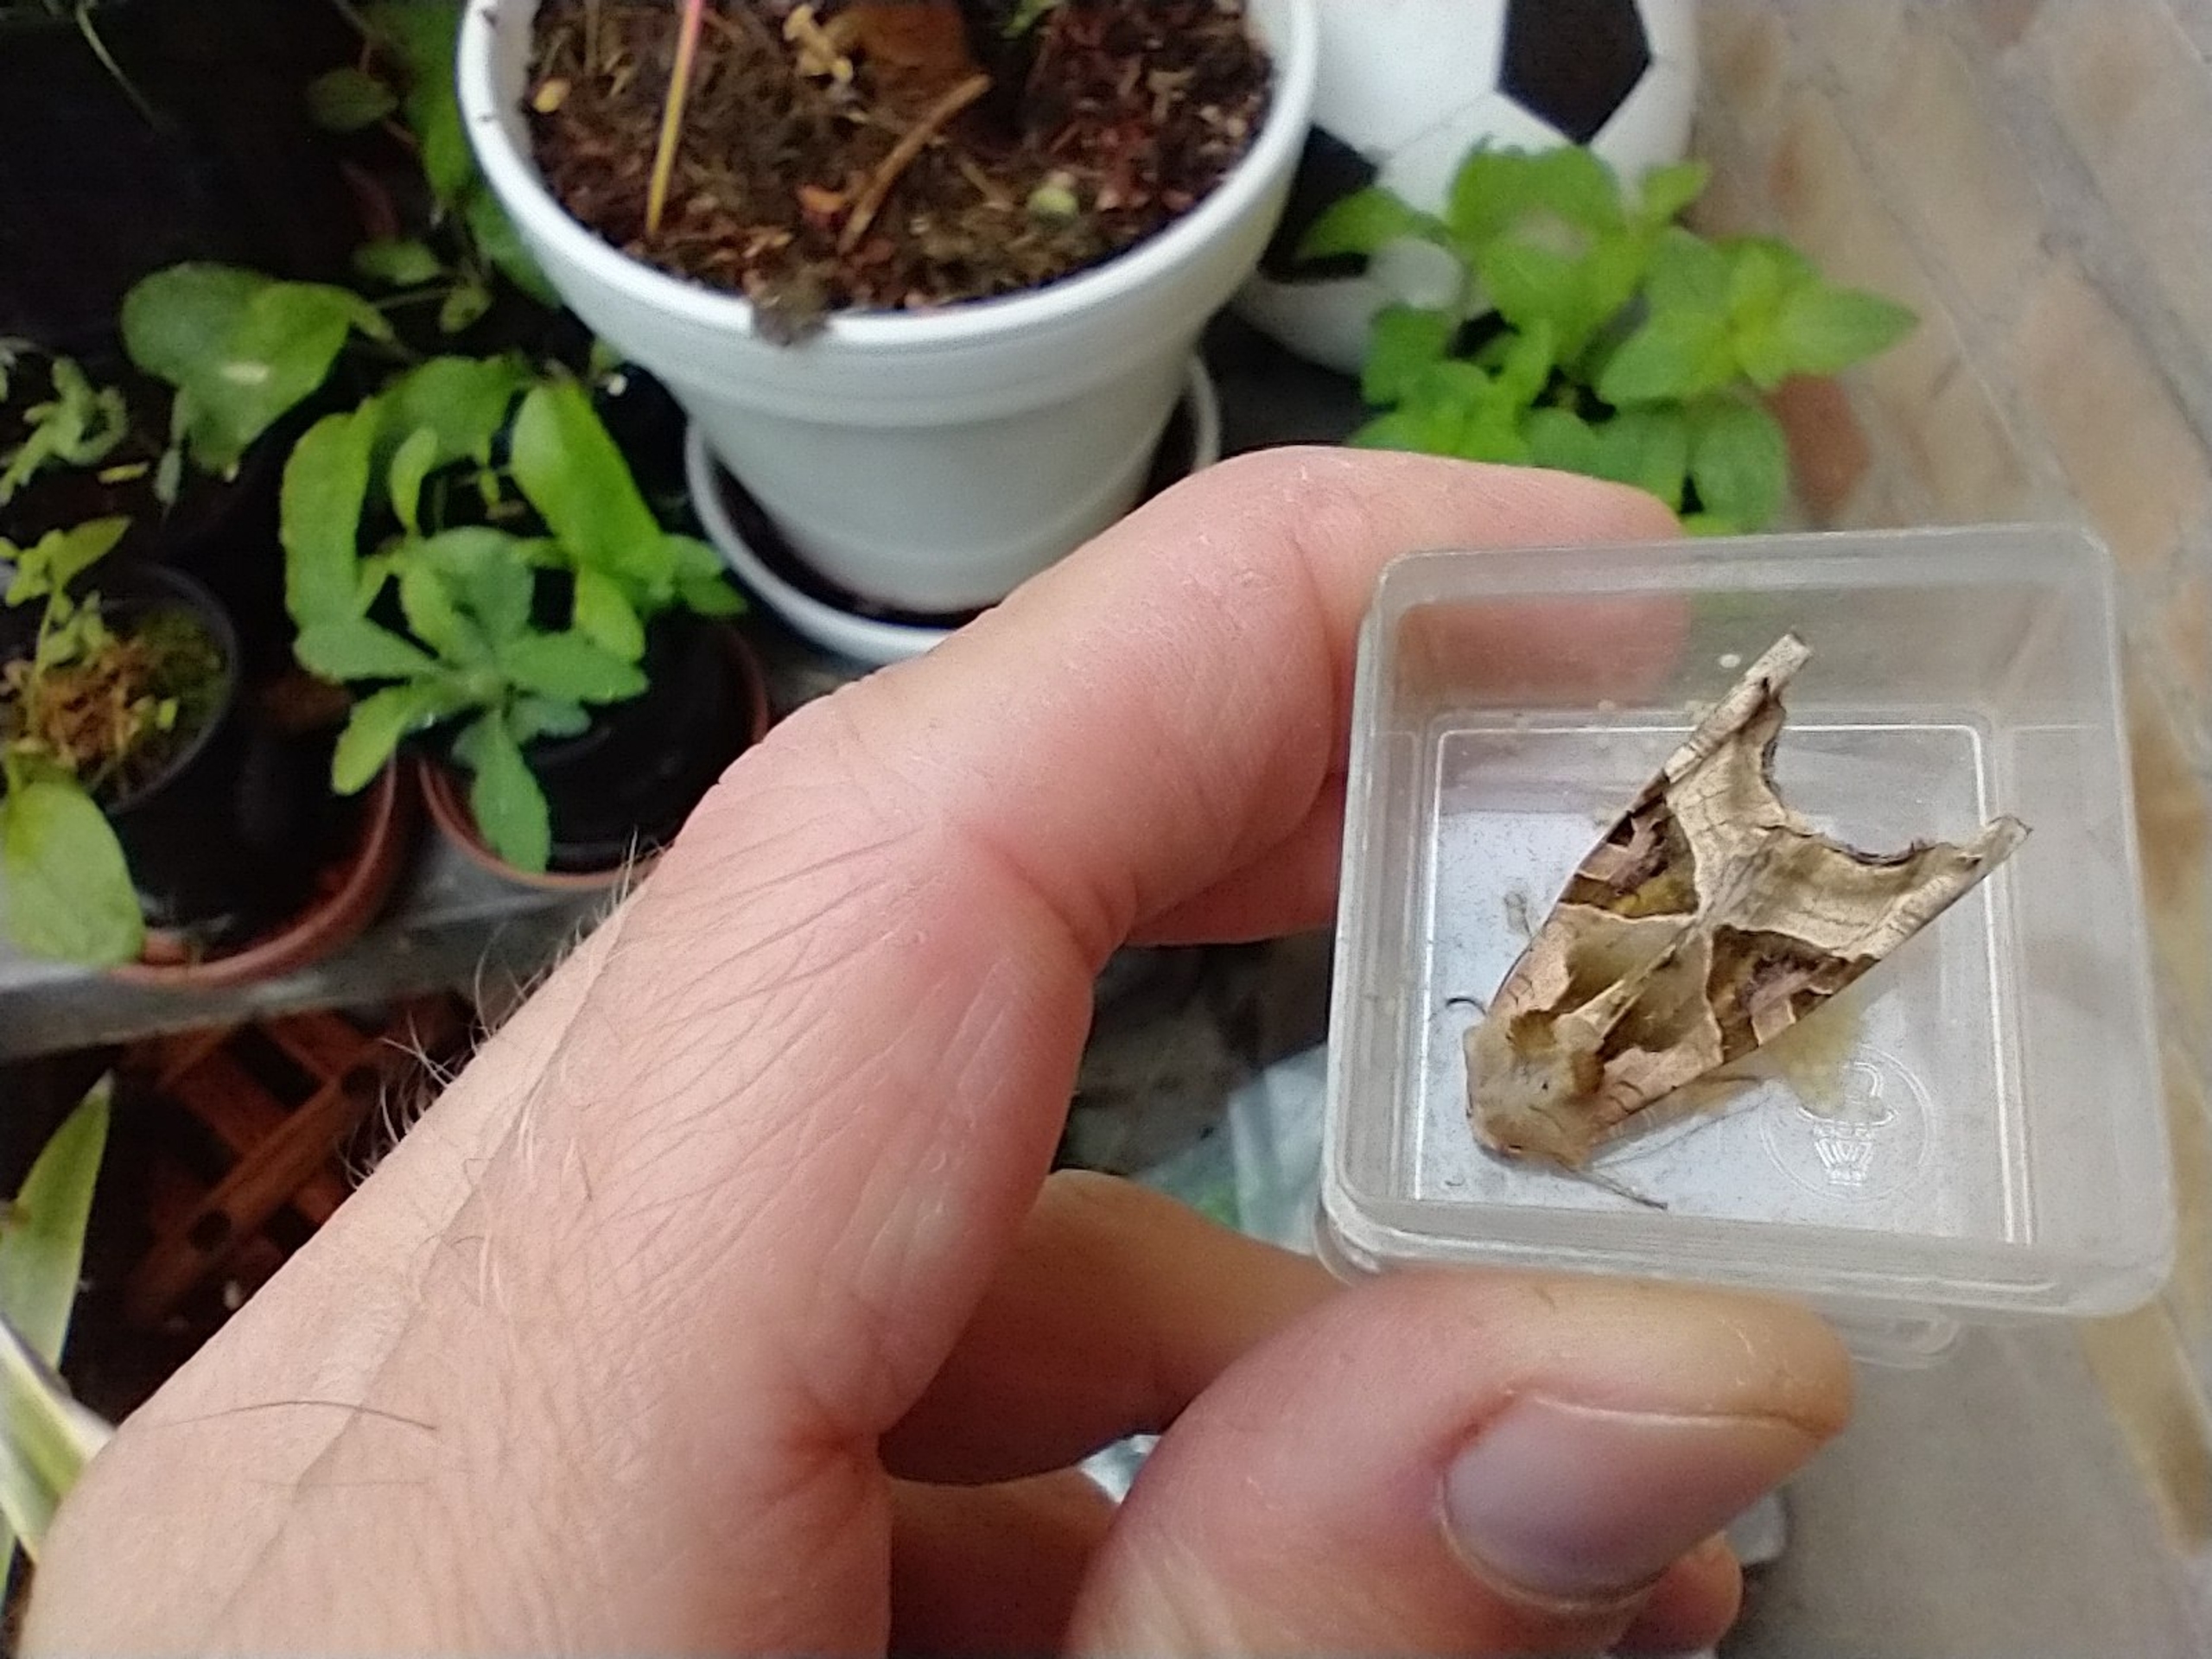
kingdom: Animalia
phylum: Arthropoda
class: Insecta
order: Lepidoptera
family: Noctuidae
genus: Phlogophora
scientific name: Phlogophora meticulosa
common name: Agatugle
